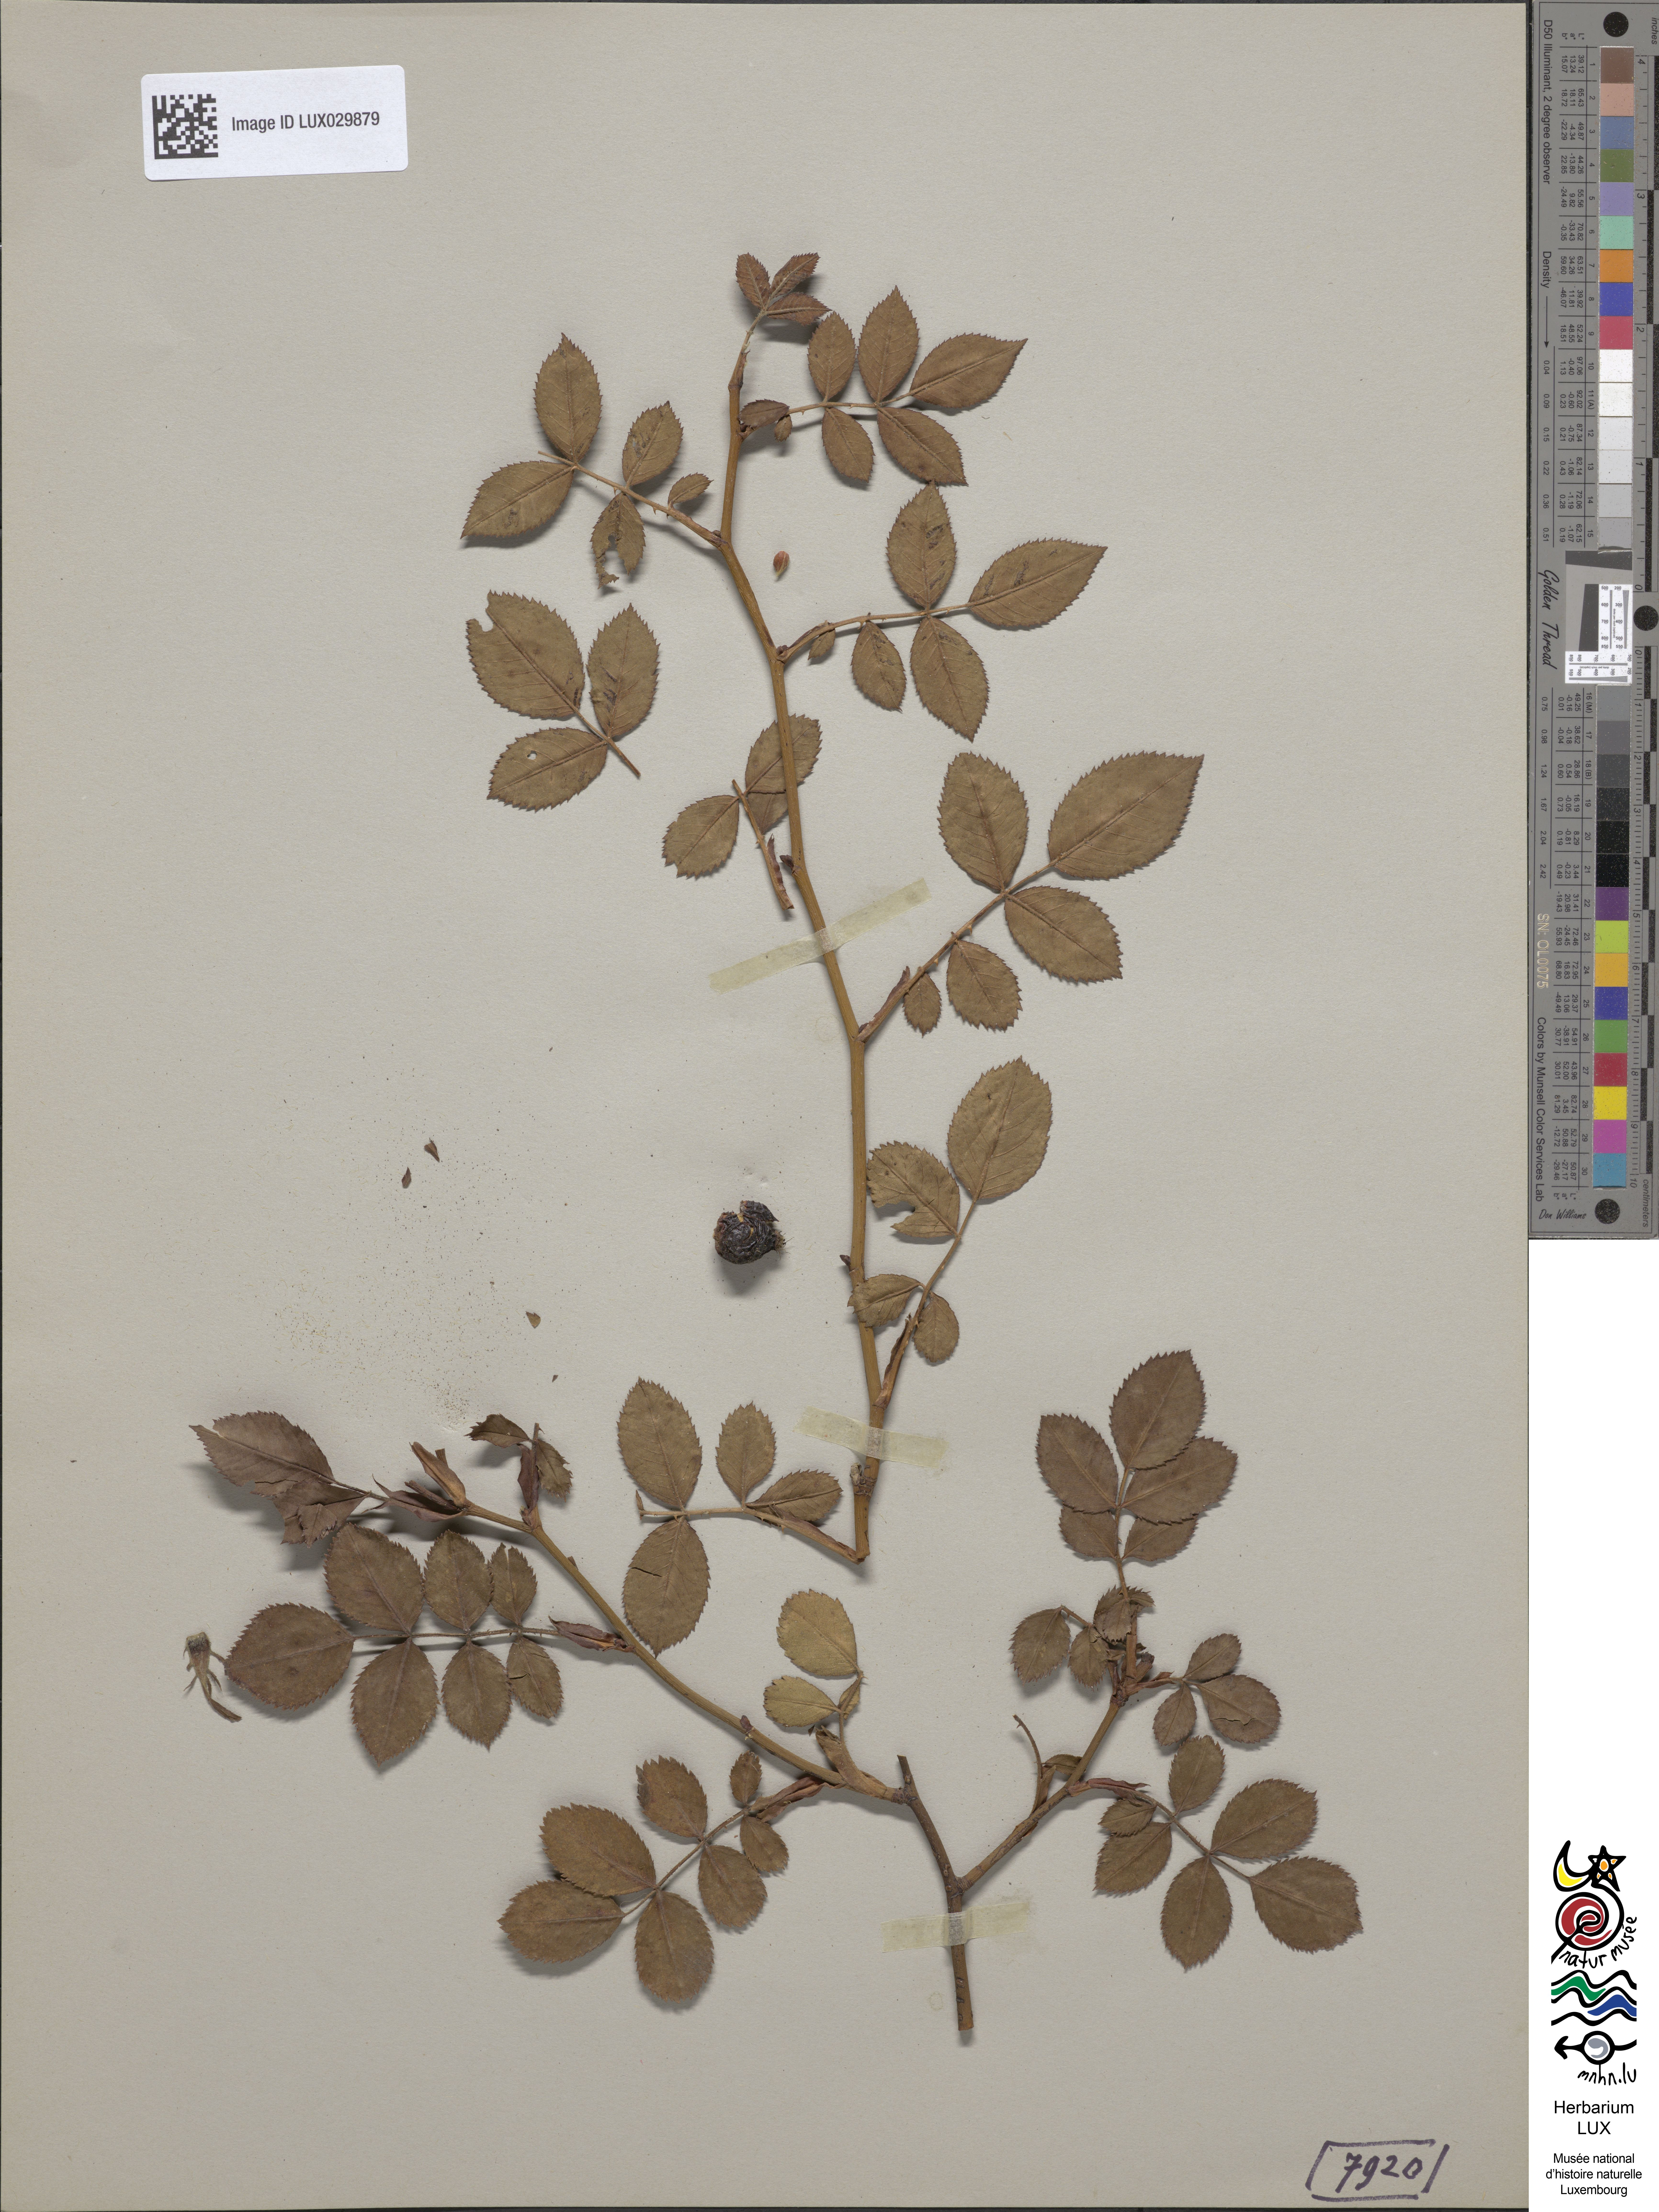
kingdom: Plantae
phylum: Tracheophyta
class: Magnoliopsida
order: Rosales
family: Rosaceae
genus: Rosa
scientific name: Rosa balsamica
